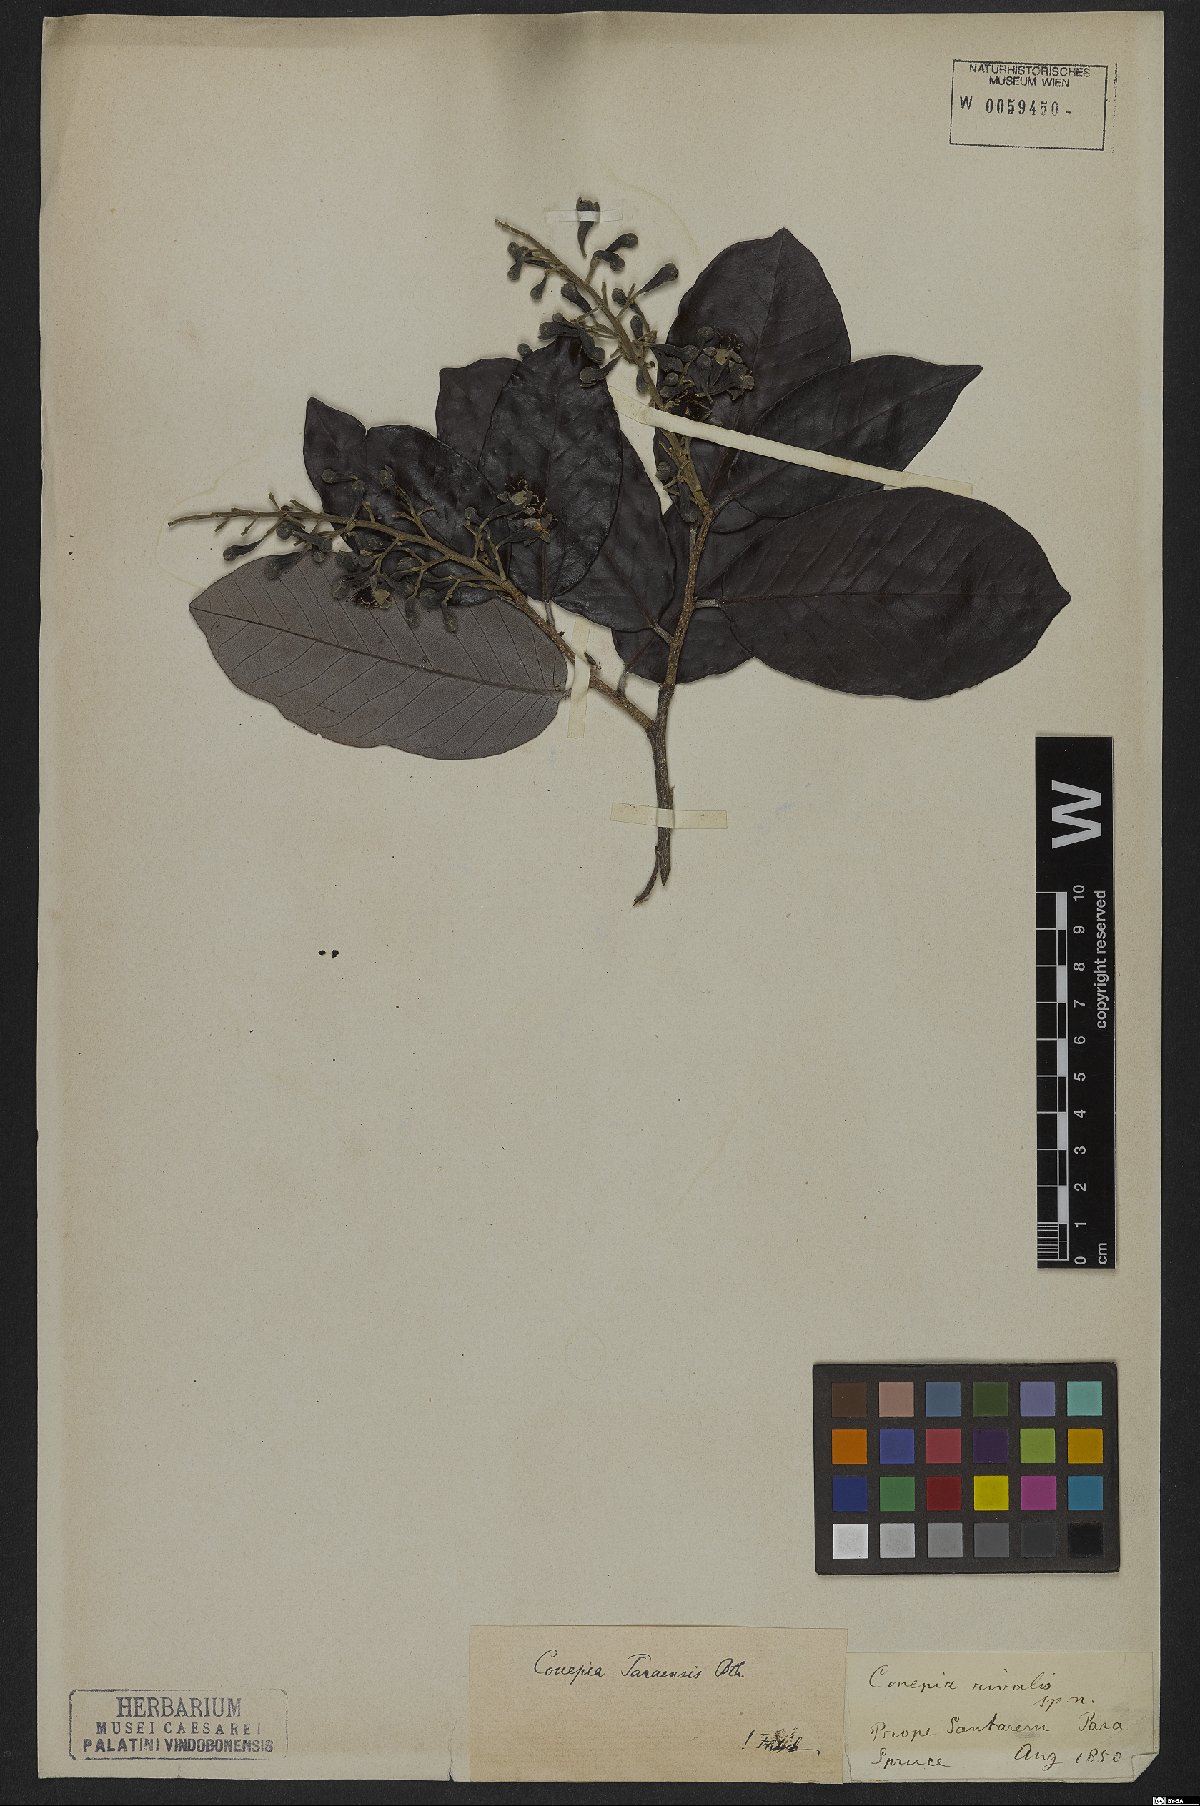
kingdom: Plantae
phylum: Tracheophyta
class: Magnoliopsida
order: Malpighiales
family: Chrysobalanaceae
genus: Couepia
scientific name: Couepia paraensis
